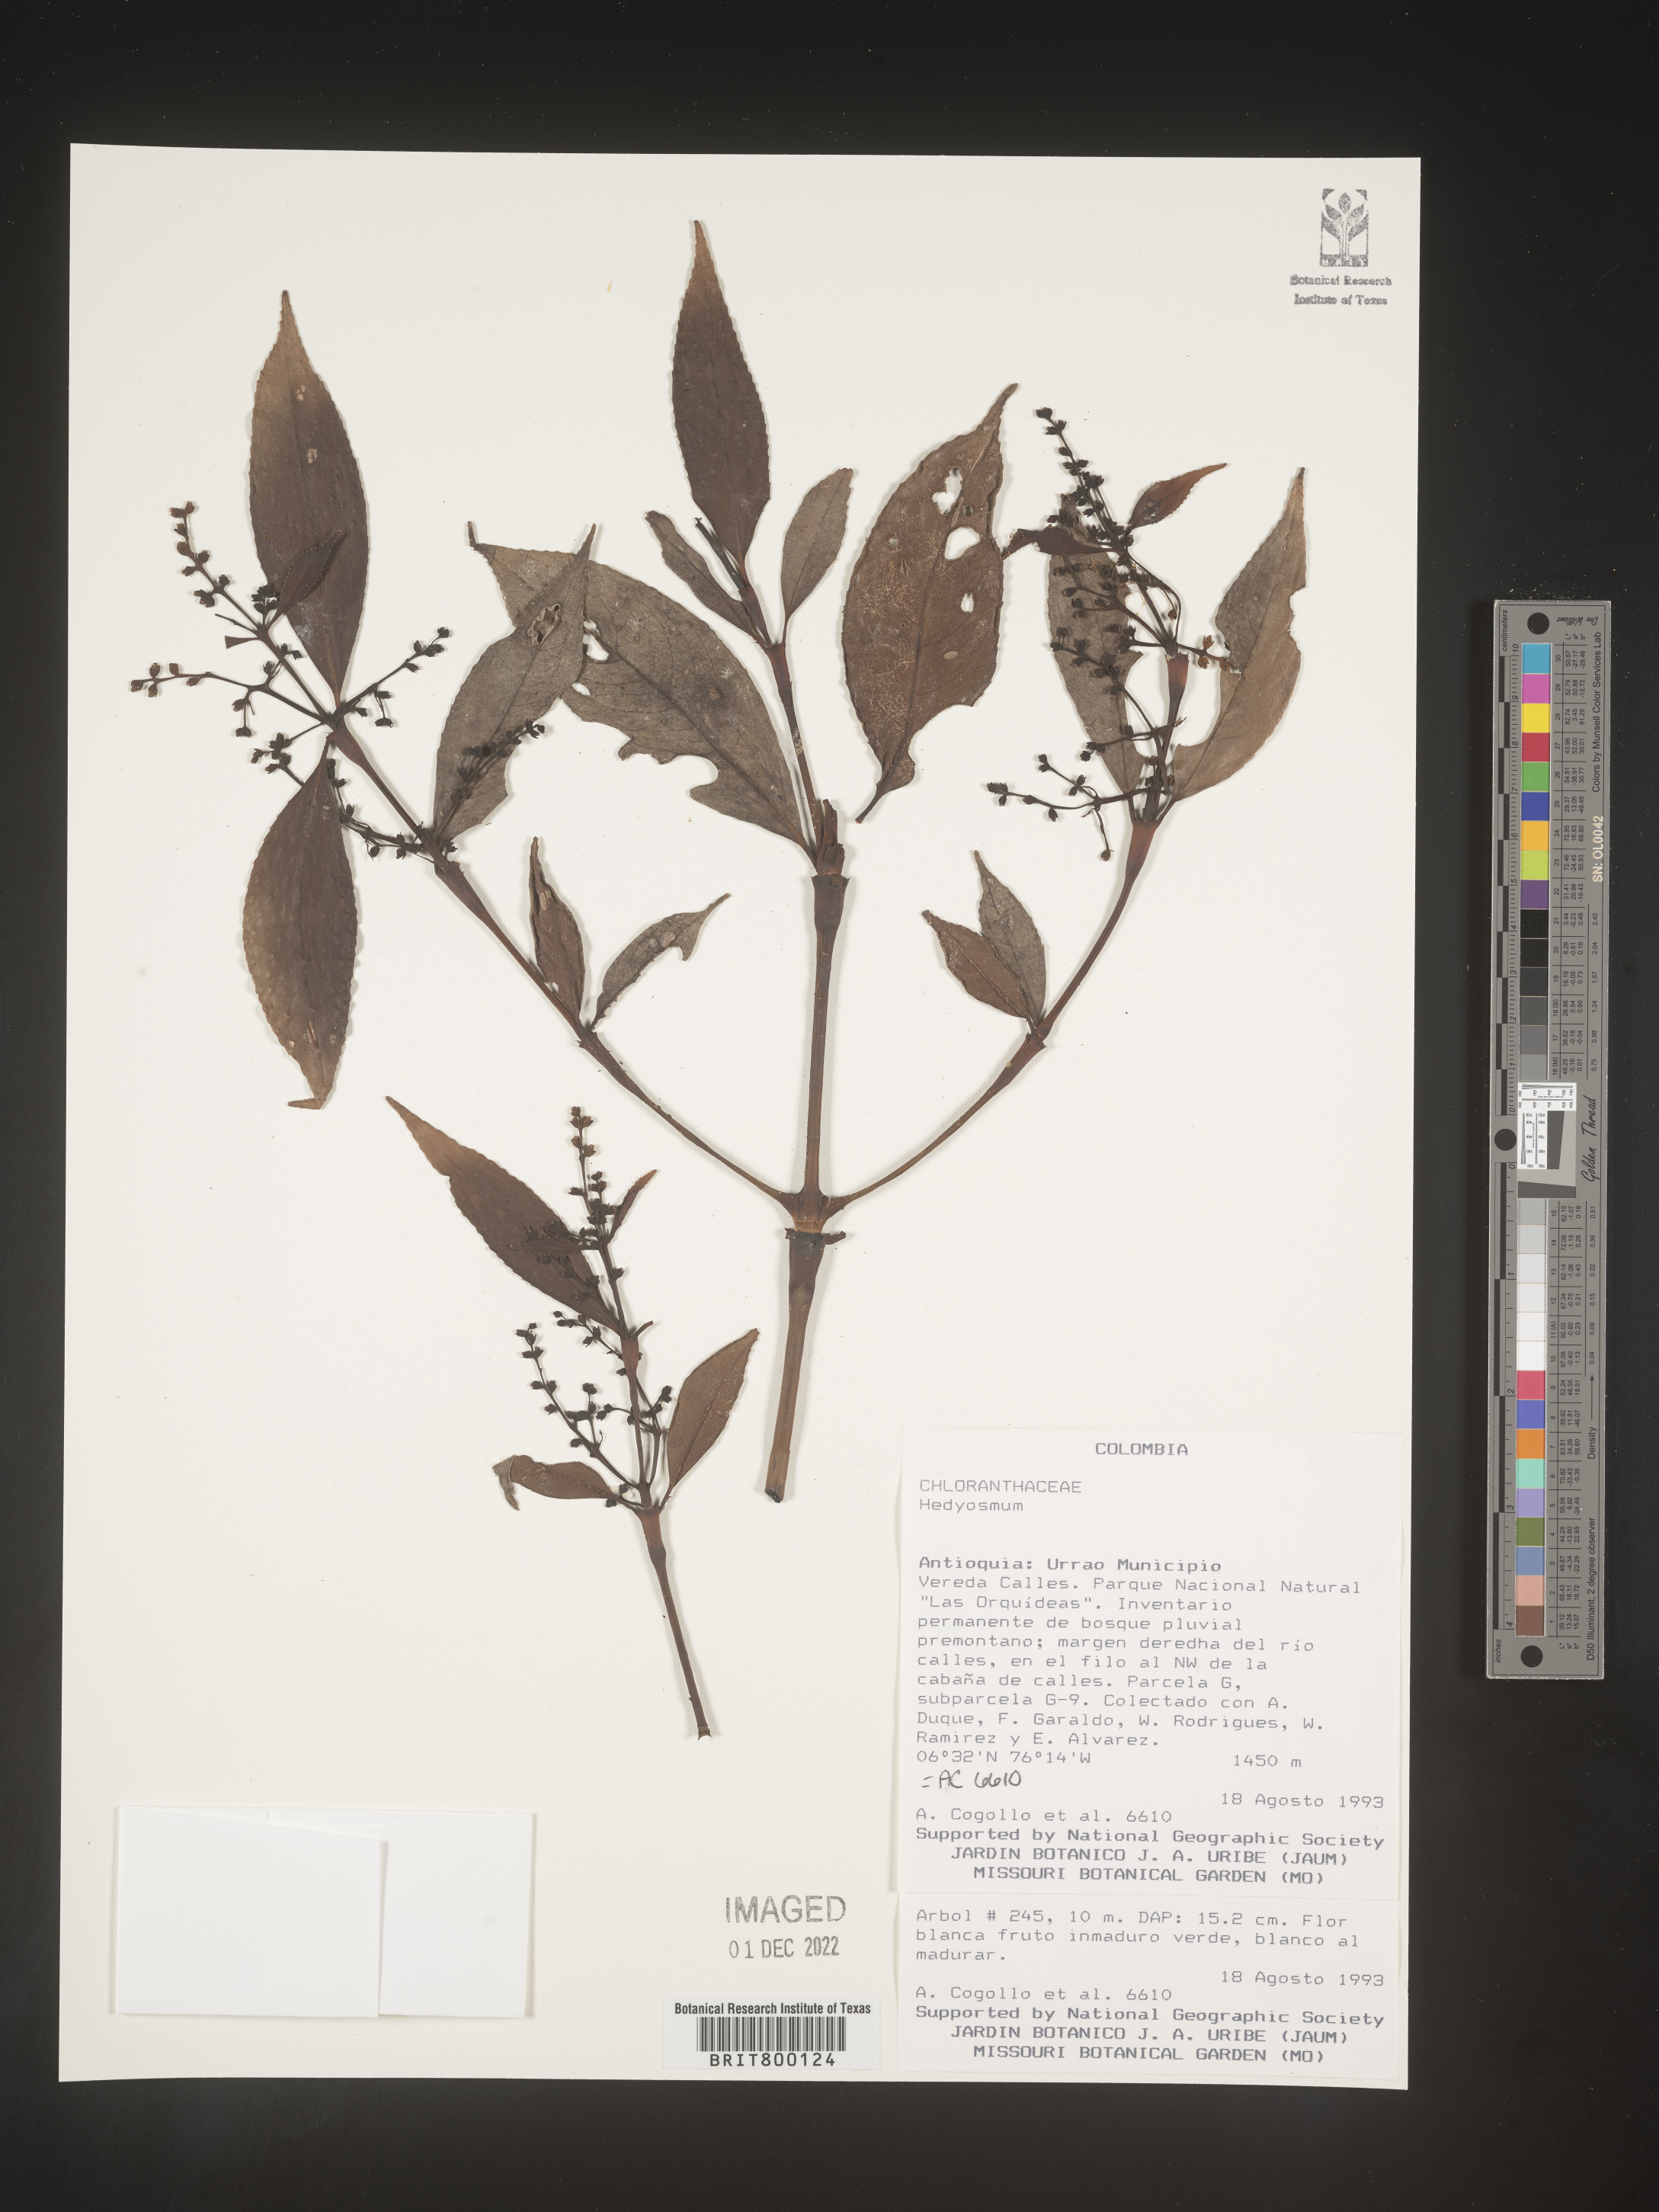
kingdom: Plantae
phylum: Tracheophyta
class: Magnoliopsida
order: Chloranthales
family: Chloranthaceae
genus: Hedyosmum
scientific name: Hedyosmum
